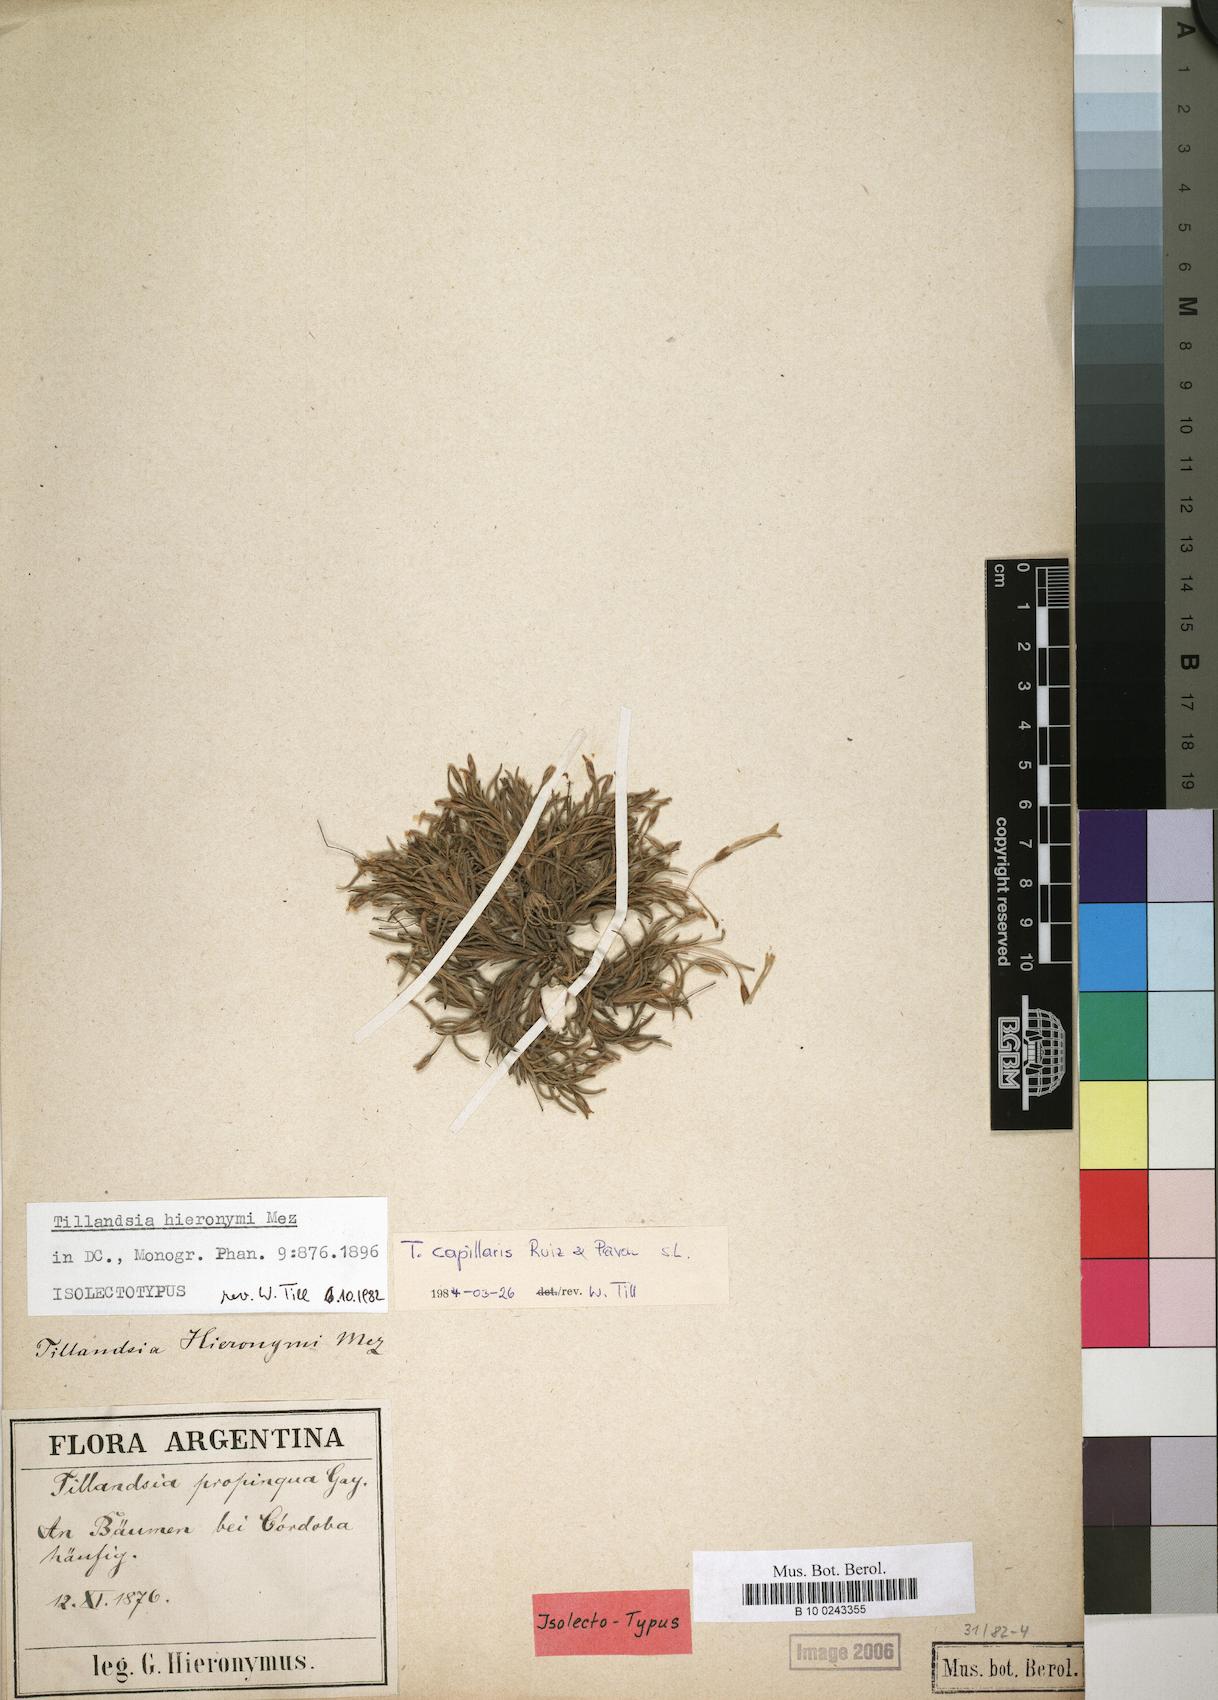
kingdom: Plantae
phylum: Tracheophyta
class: Liliopsida
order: Poales
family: Bromeliaceae
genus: Tillandsia
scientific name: Tillandsia capillaris
